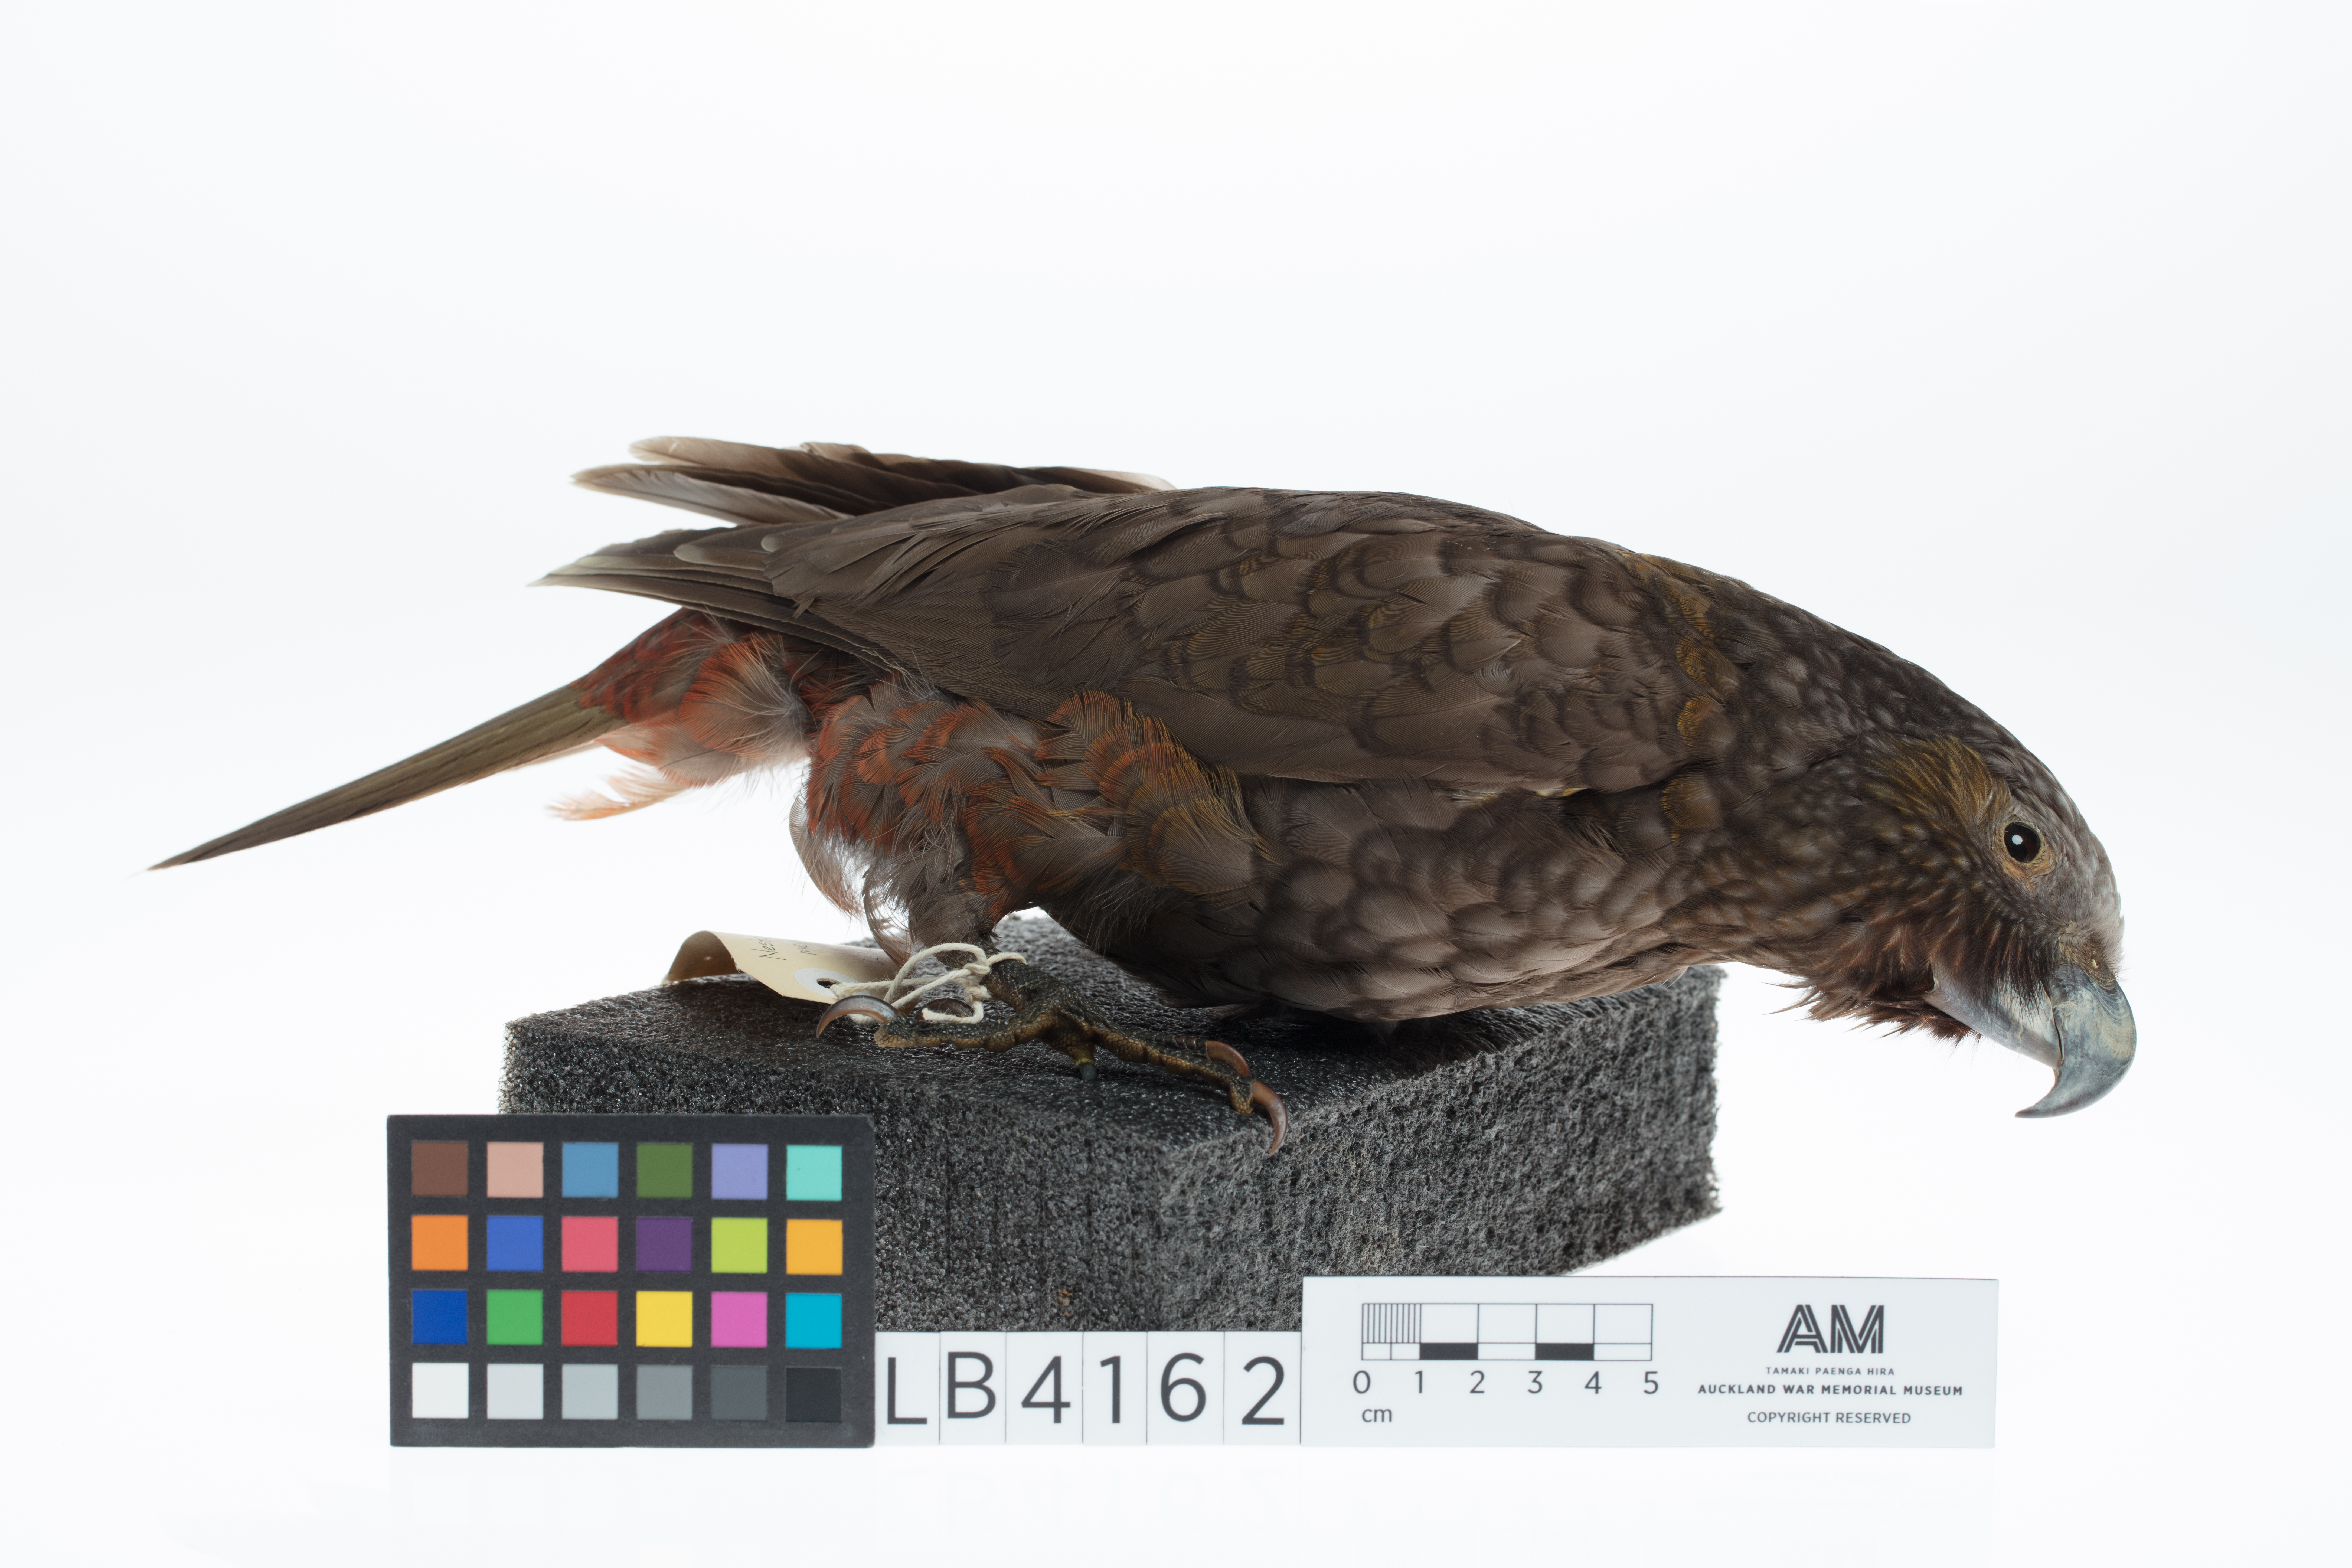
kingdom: Animalia
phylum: Chordata
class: Aves
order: Psittaciformes
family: Psittacidae
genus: Nestor
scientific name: Nestor meridionalis
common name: New zealand kaka
